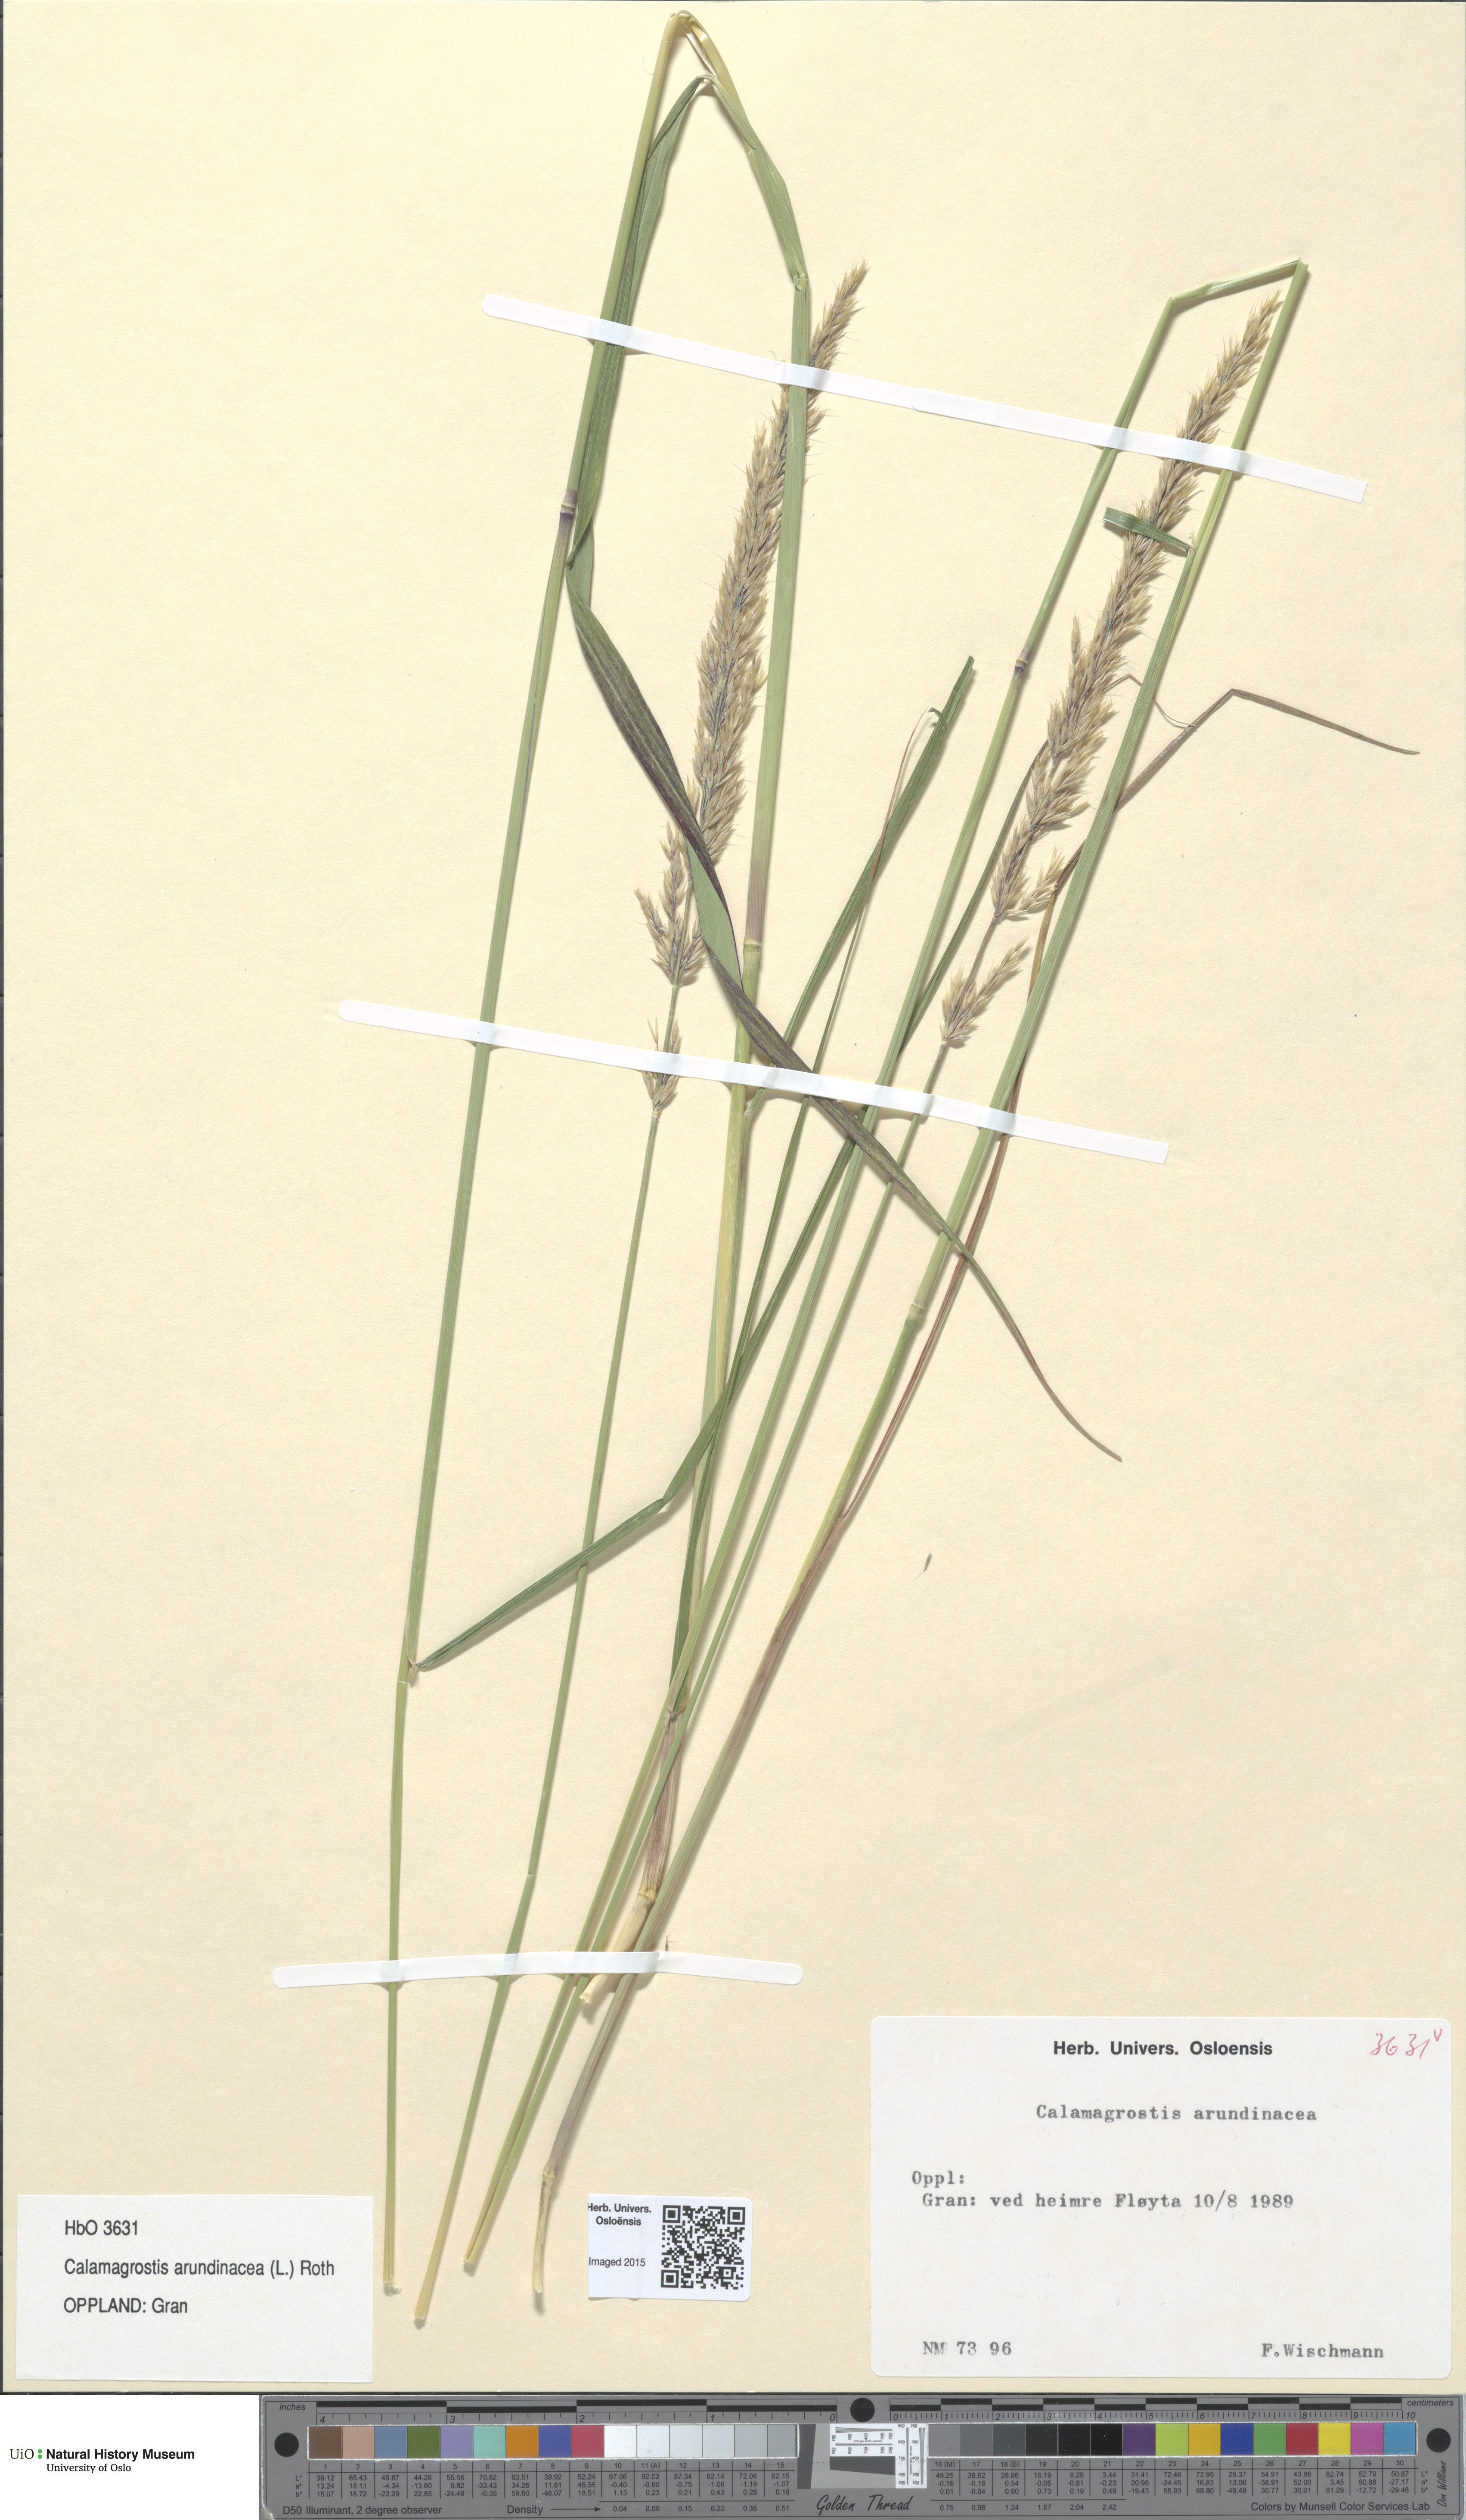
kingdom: Plantae
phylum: Tracheophyta
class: Liliopsida
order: Poales
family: Poaceae
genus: Calamagrostis
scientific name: Calamagrostis arundinacea
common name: Metskastik
